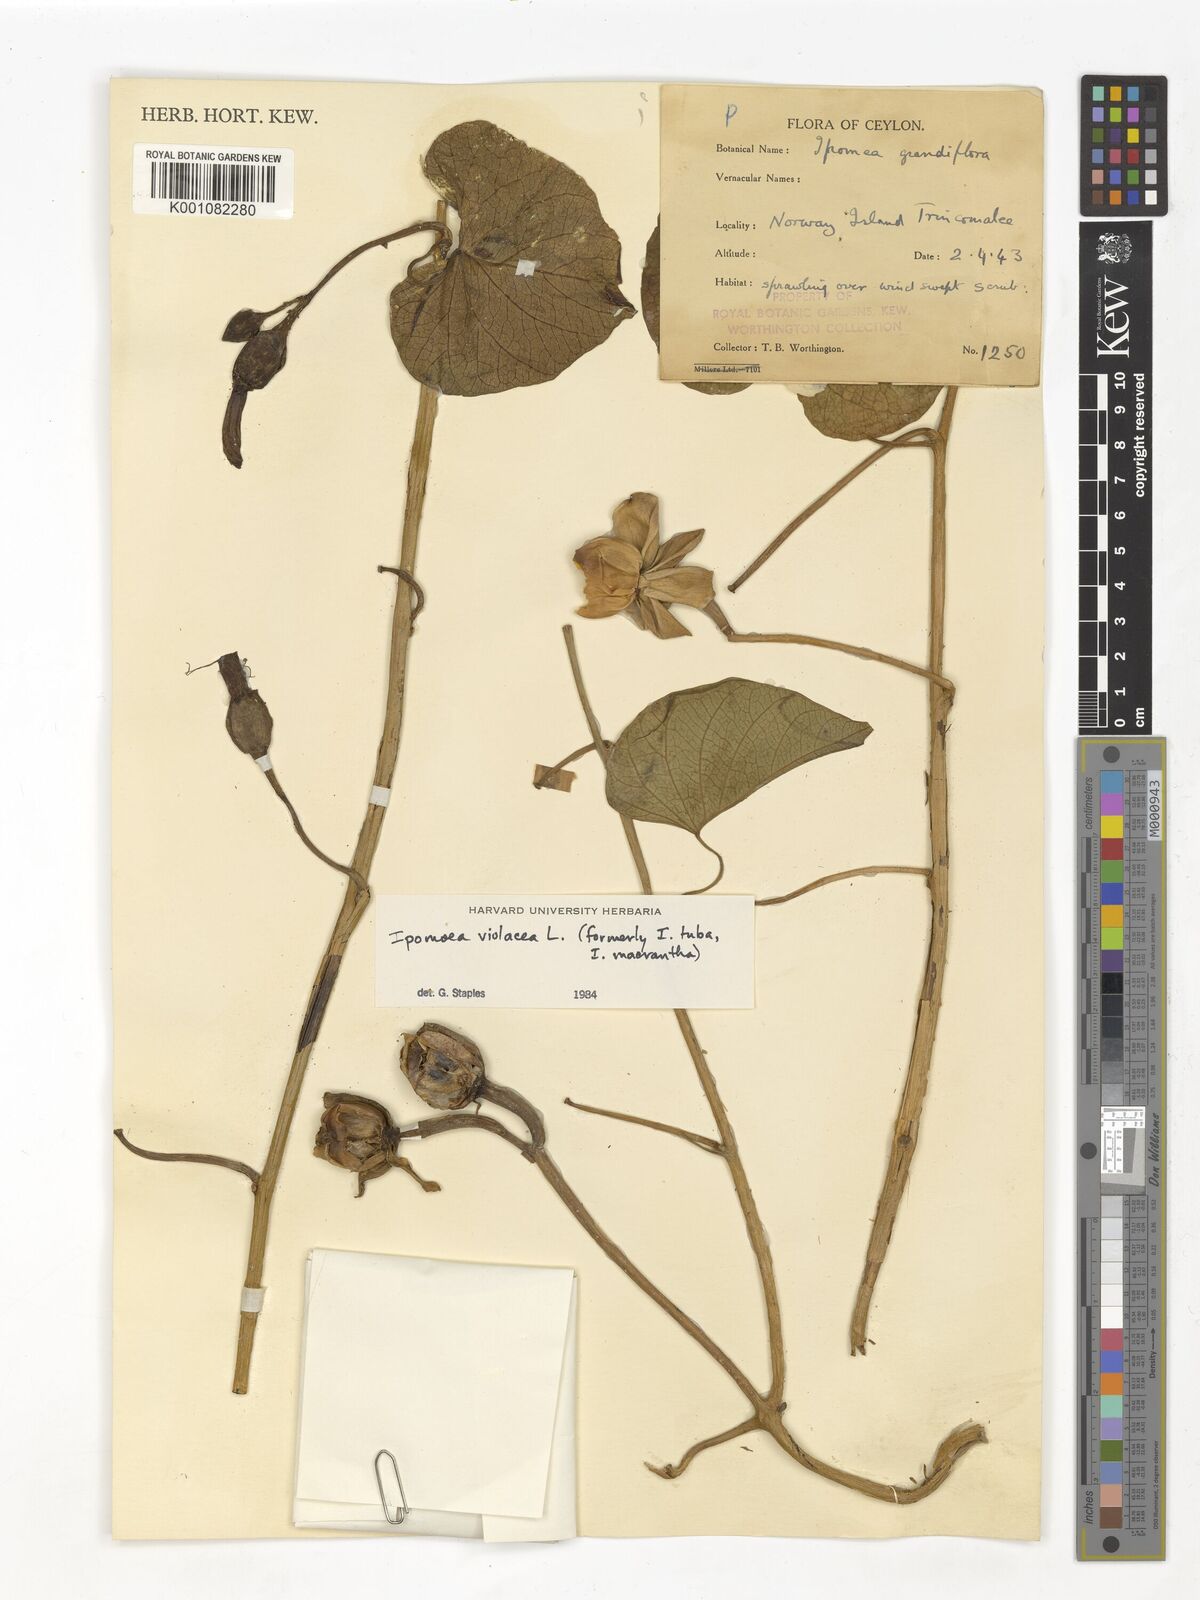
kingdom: Plantae
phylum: Tracheophyta
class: Magnoliopsida
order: Solanales
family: Convolvulaceae
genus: Ipomoea
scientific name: Ipomoea violacea
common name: Beach moonflower
